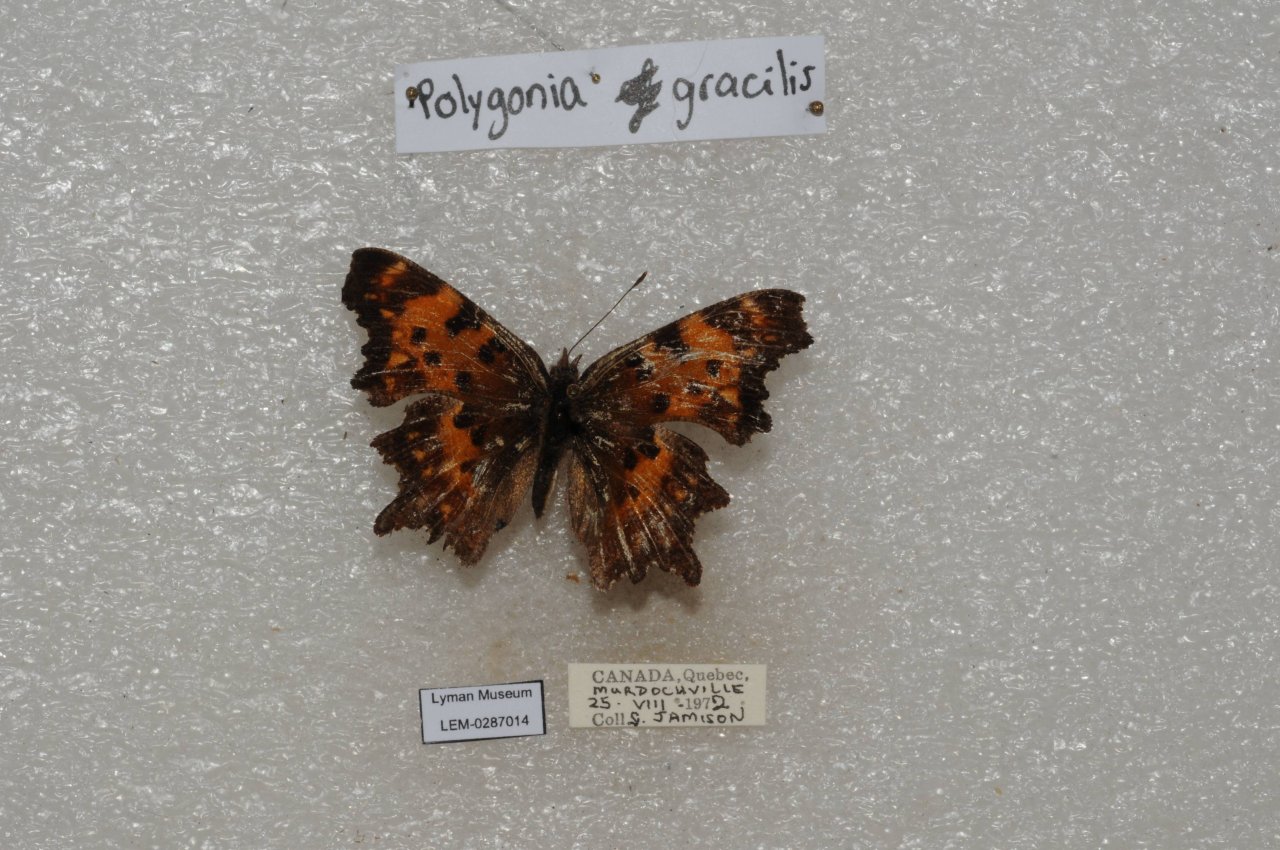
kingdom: Animalia
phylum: Arthropoda
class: Insecta
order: Lepidoptera
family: Nymphalidae
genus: Polygonia
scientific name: Polygonia gracilis
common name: Hoary Comma
